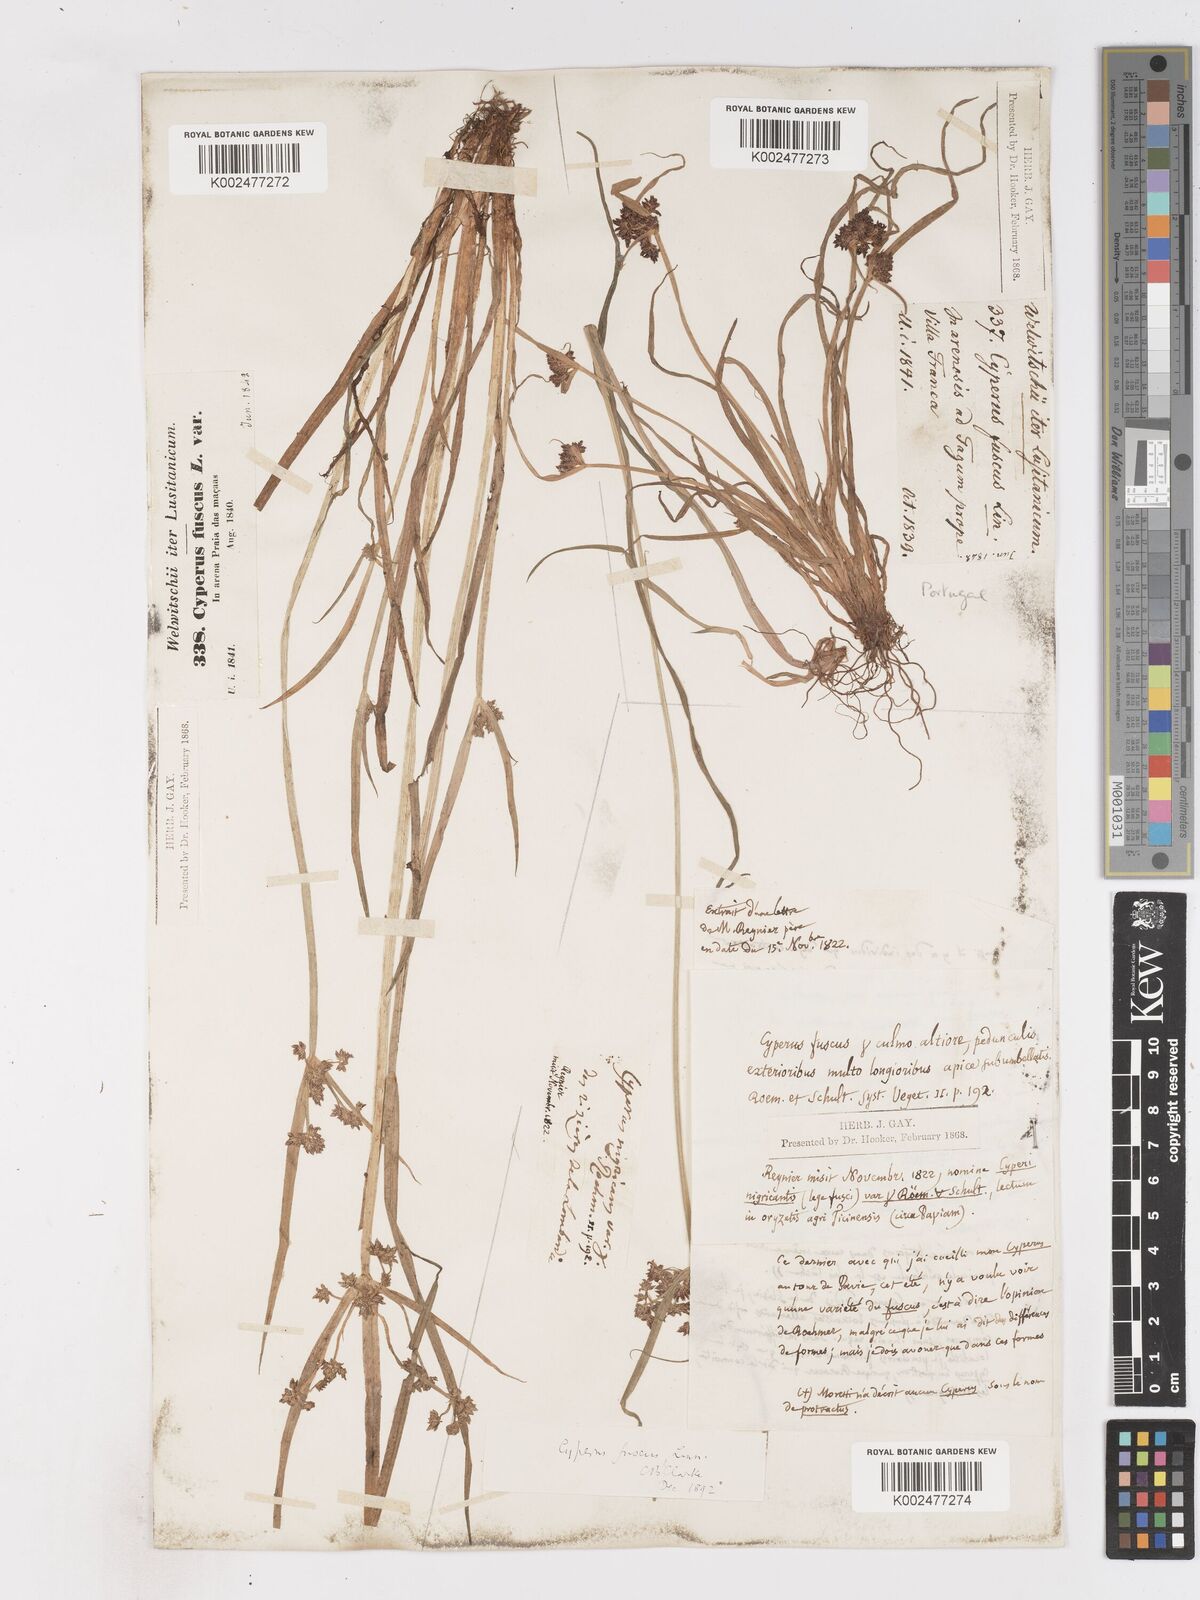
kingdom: Plantae
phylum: Tracheophyta
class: Liliopsida
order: Poales
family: Cyperaceae
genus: Cyperus
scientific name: Cyperus fuscus
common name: Brown galingale
